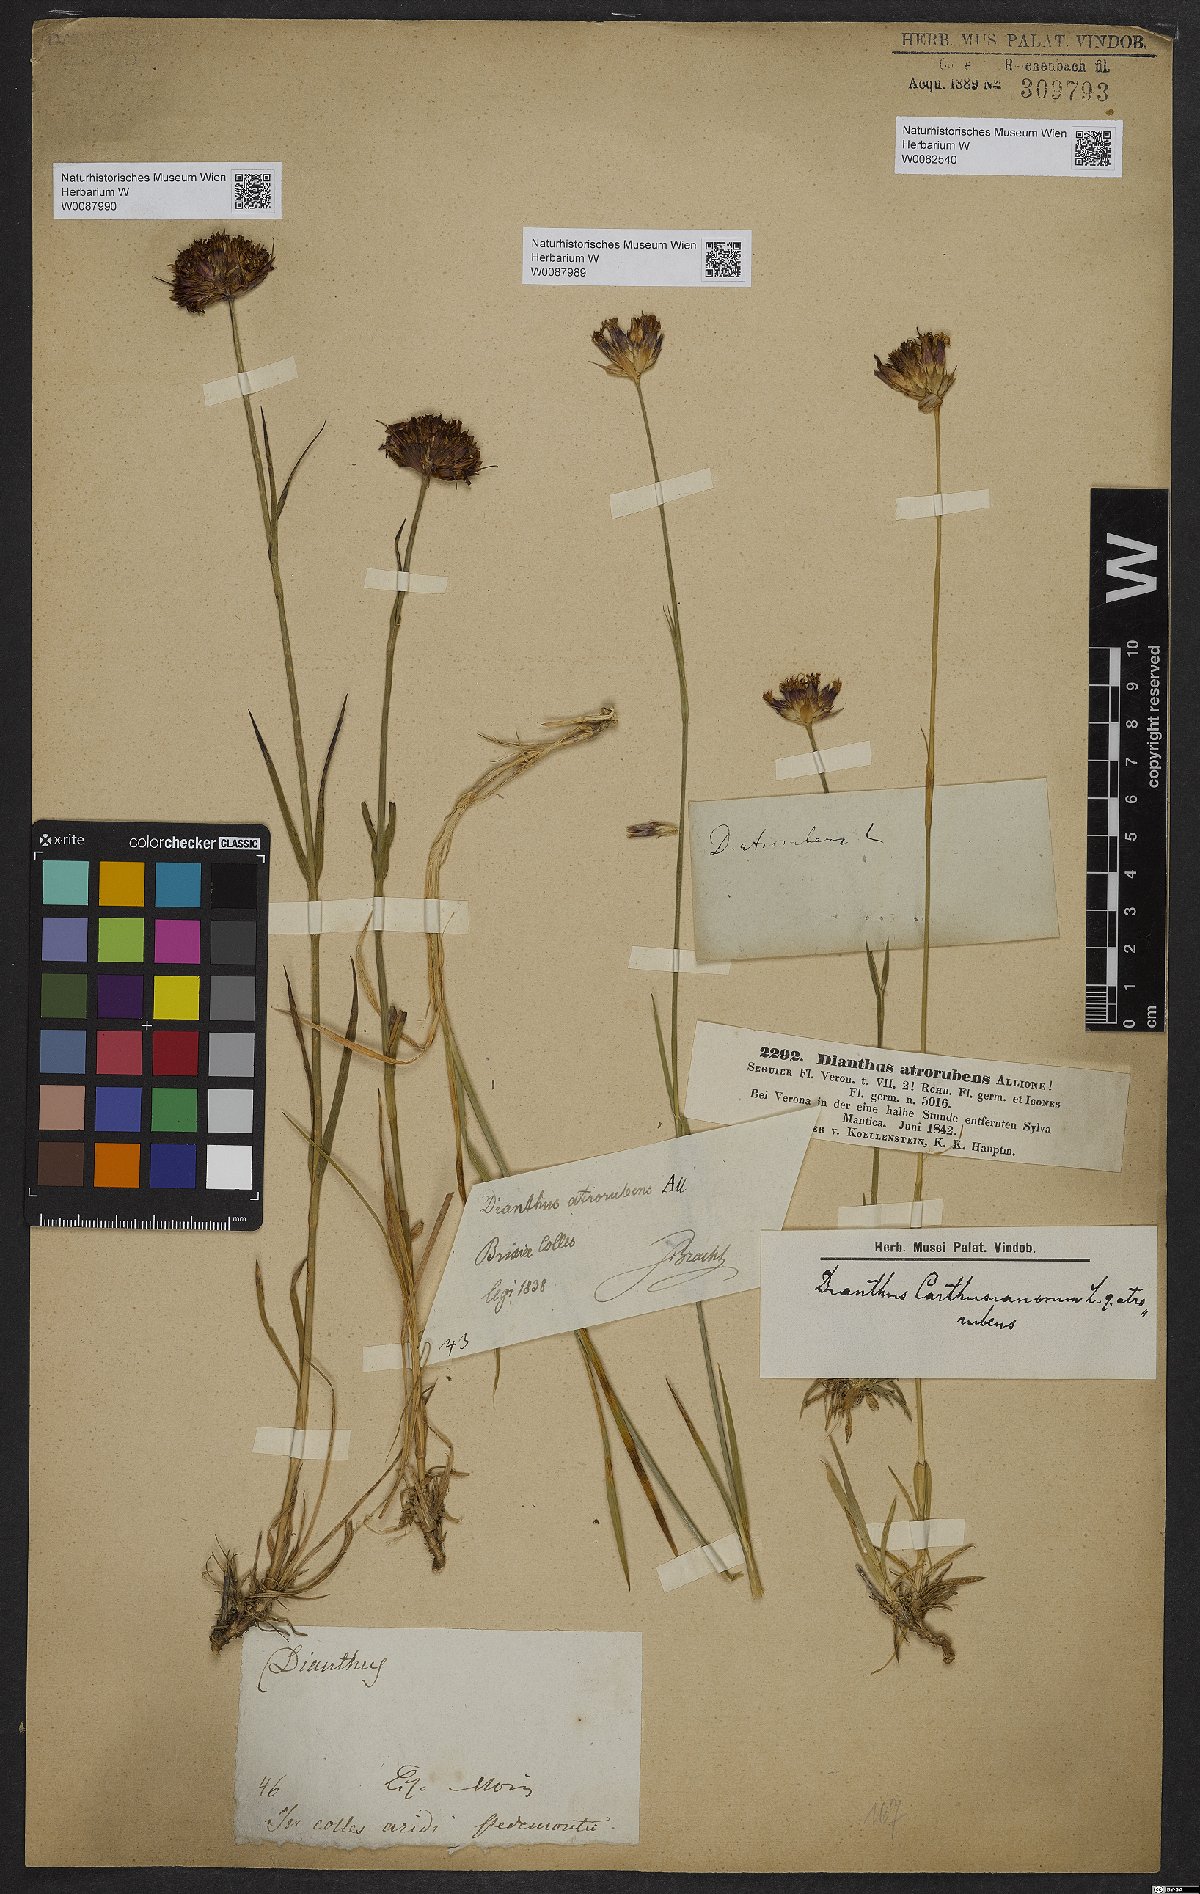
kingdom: Plantae
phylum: Tracheophyta
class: Magnoliopsida
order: Caryophyllales
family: Caryophyllaceae
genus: Dianthus
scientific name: Dianthus carthusianorum
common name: Carthusian pink
